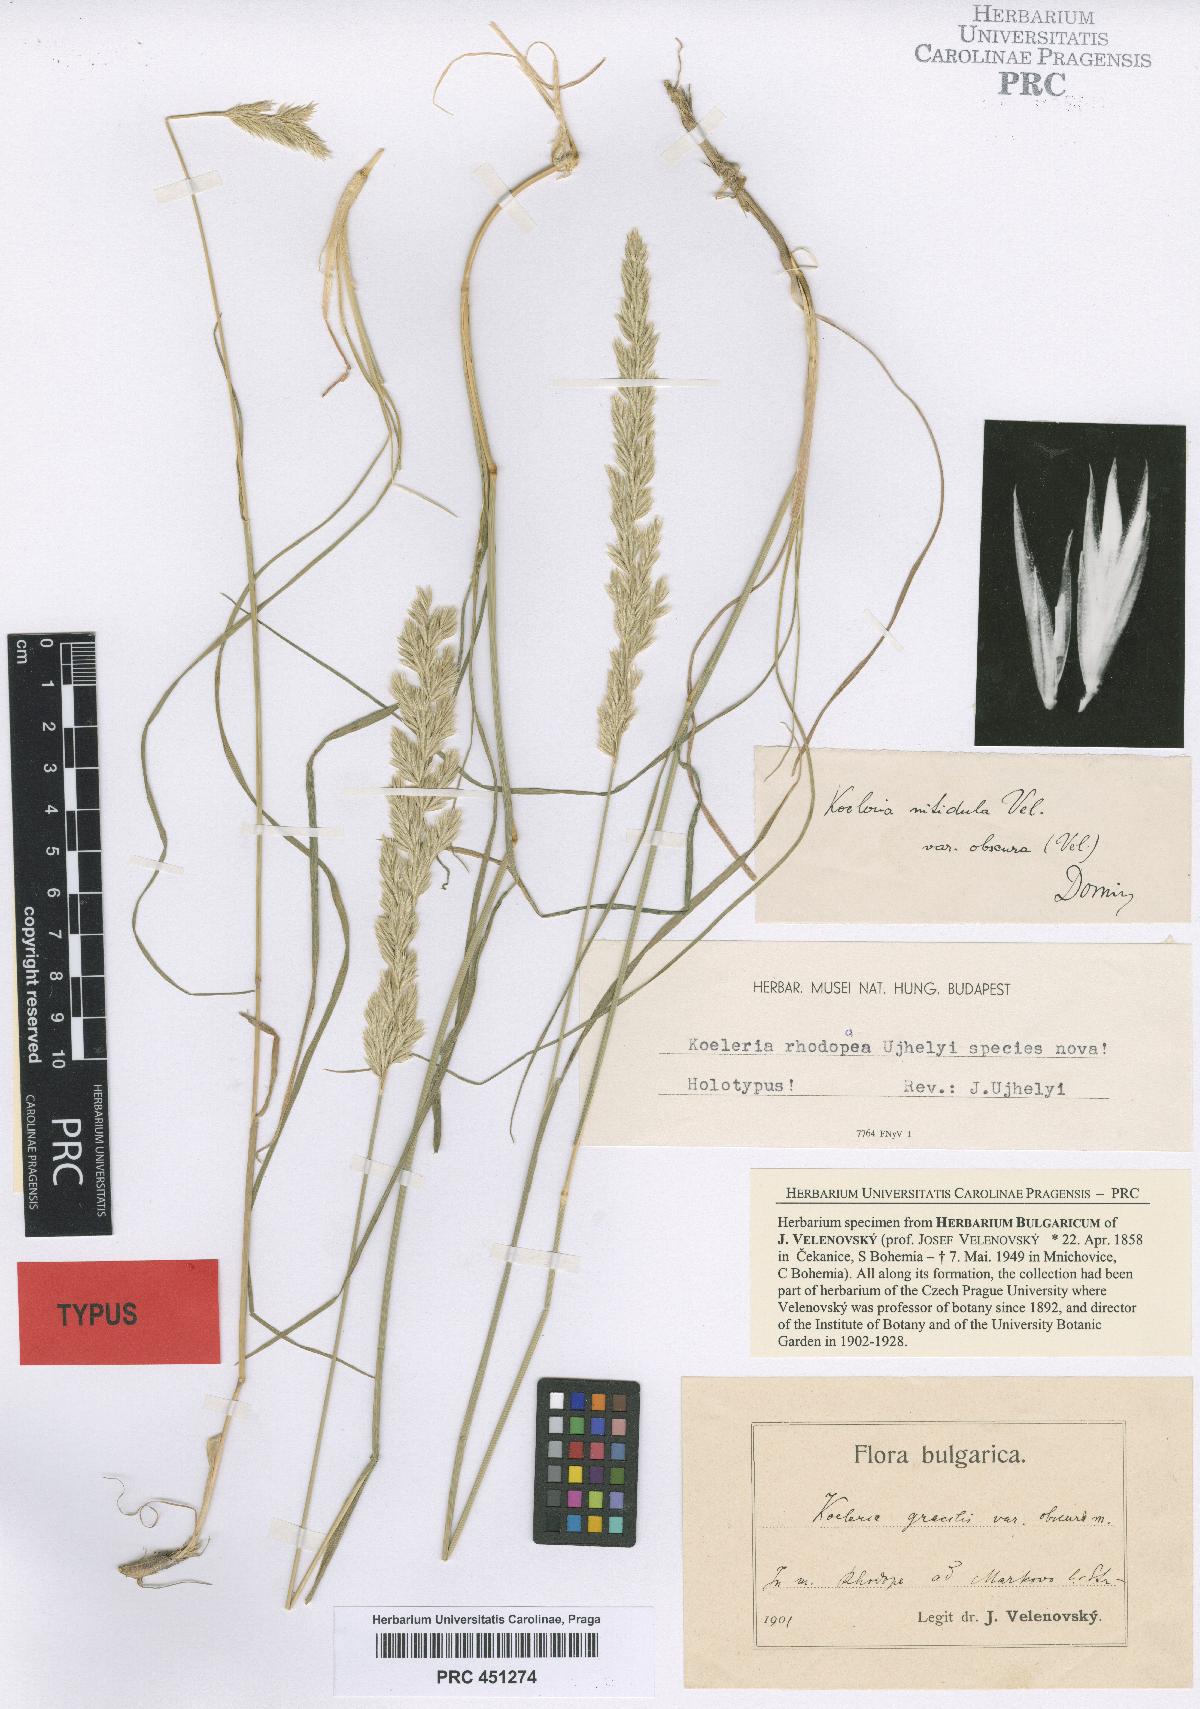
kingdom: Plantae
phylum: Tracheophyta
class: Liliopsida
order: Poales
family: Poaceae
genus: Koeleria
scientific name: Koeleria macrantha
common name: Crested hair-grass
